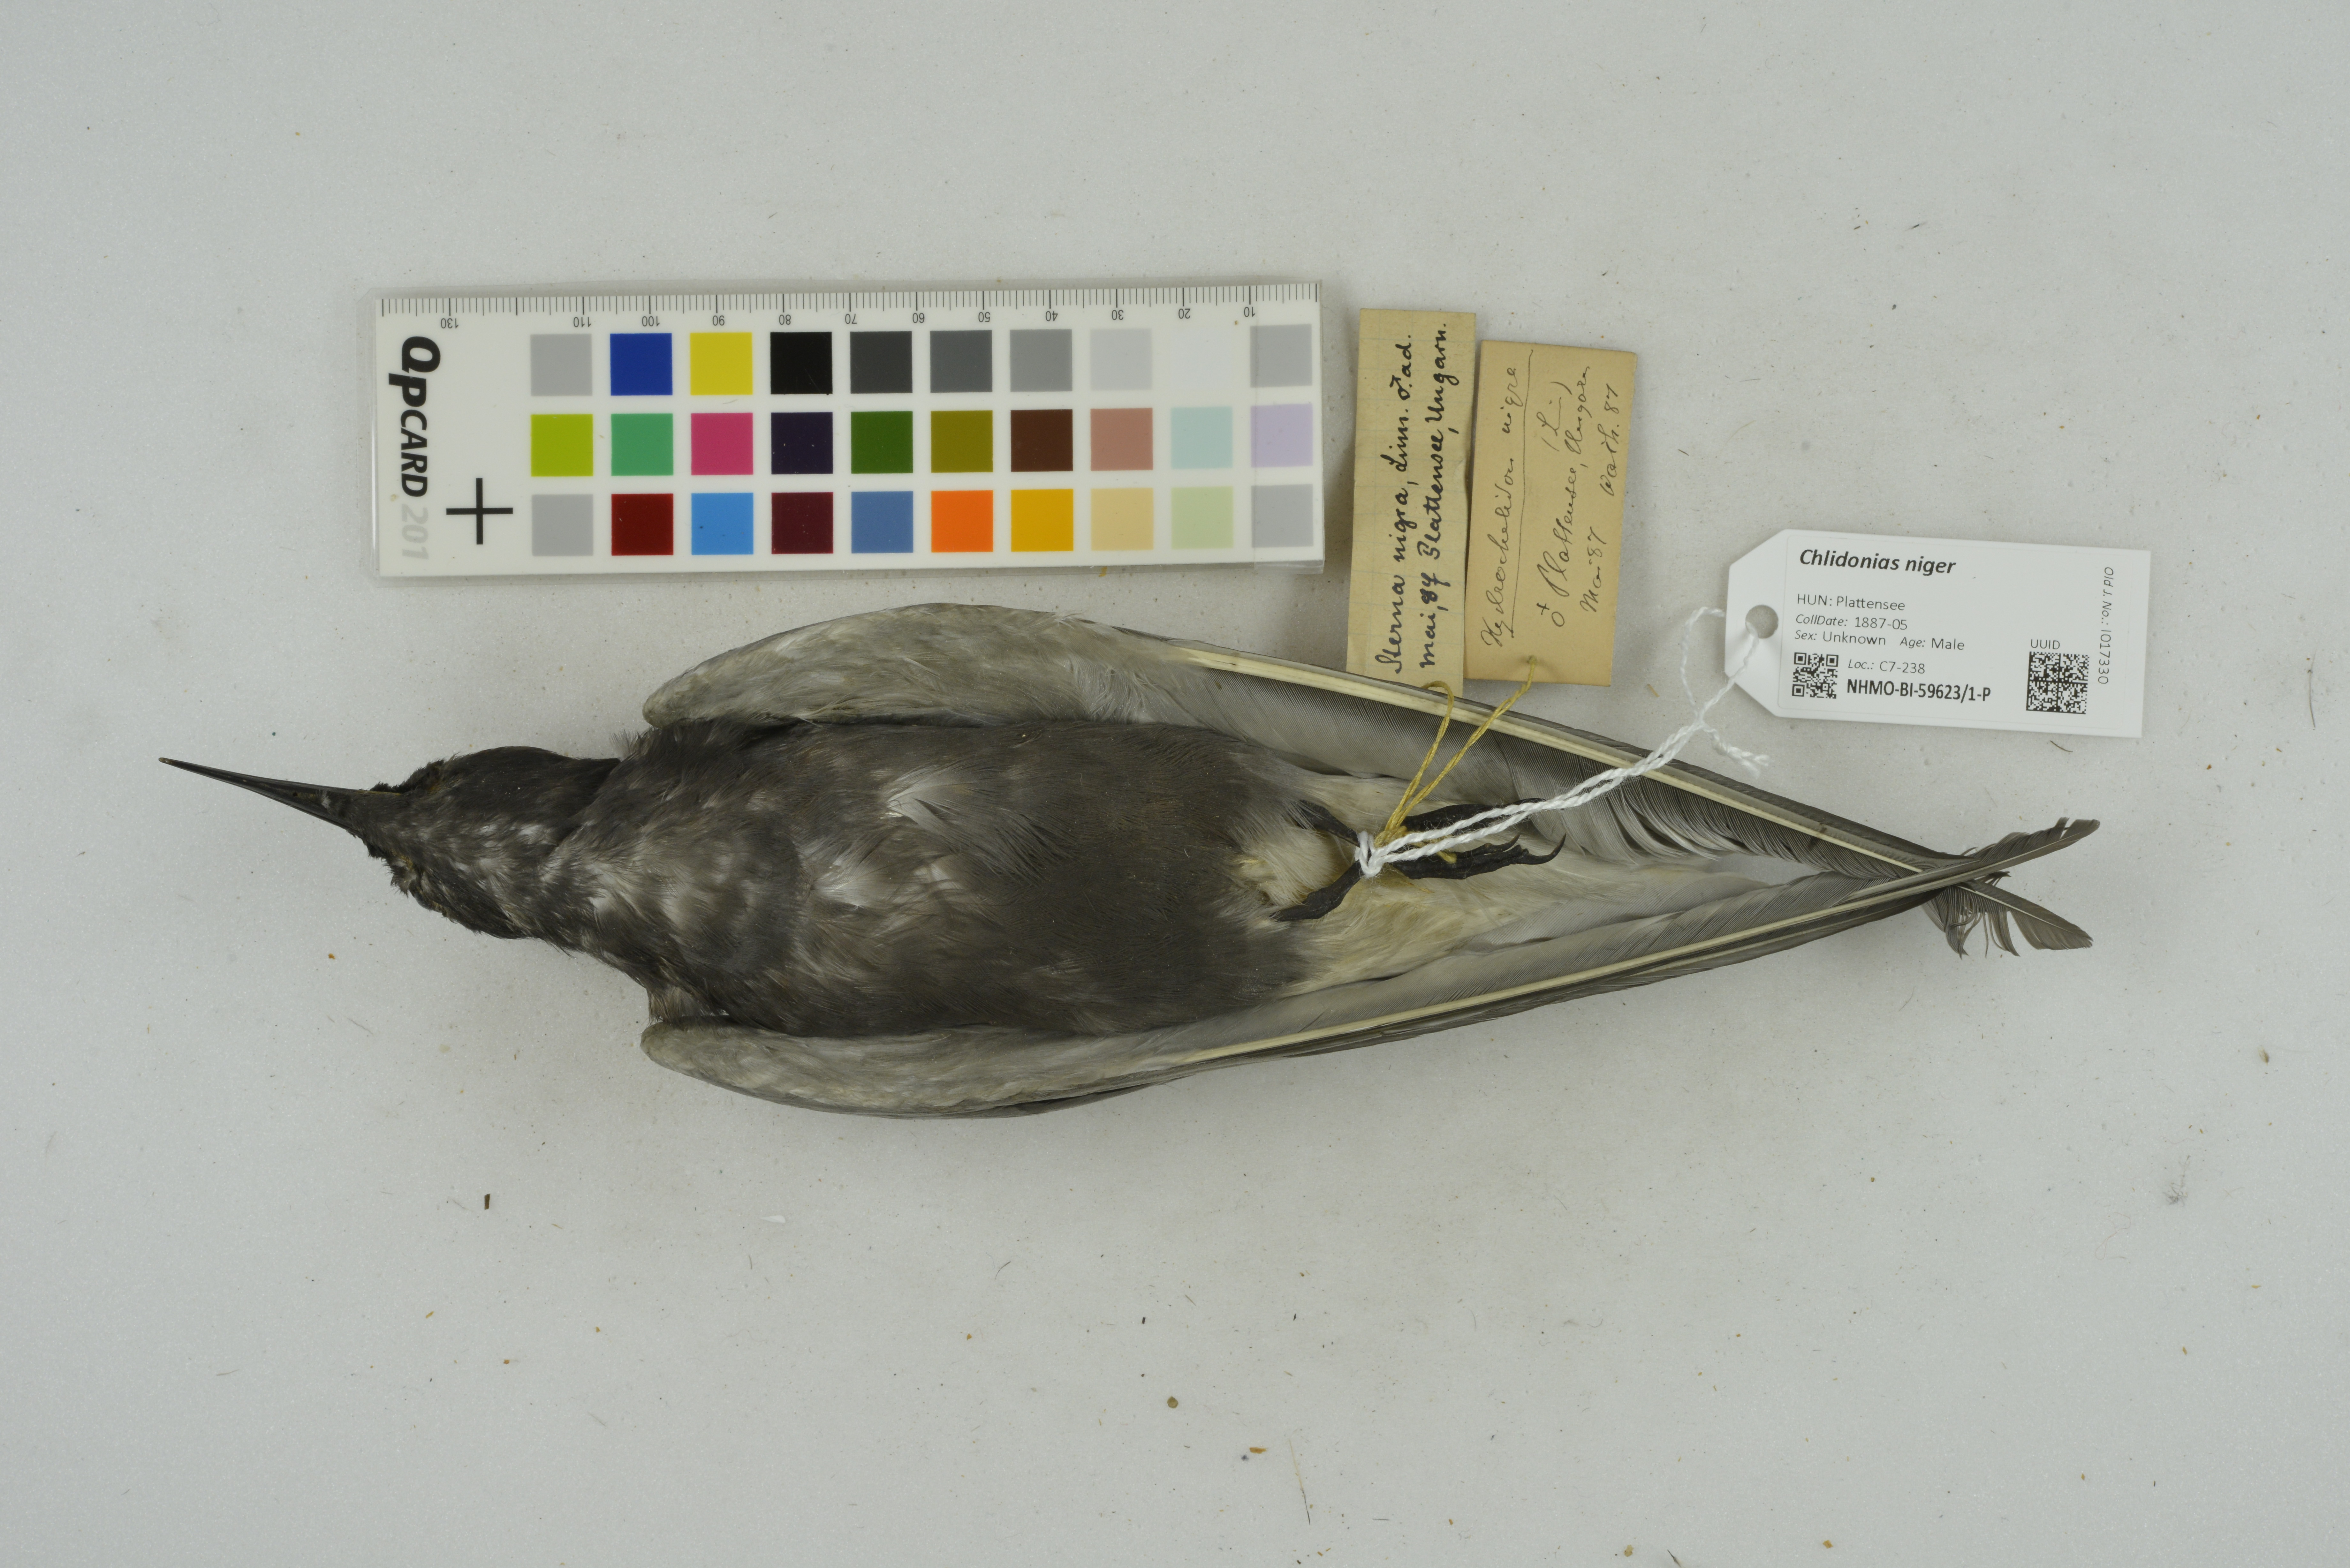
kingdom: Animalia
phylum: Chordata
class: Aves
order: Charadriiformes
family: Laridae
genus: Chlidonias
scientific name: Chlidonias niger
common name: Black tern
